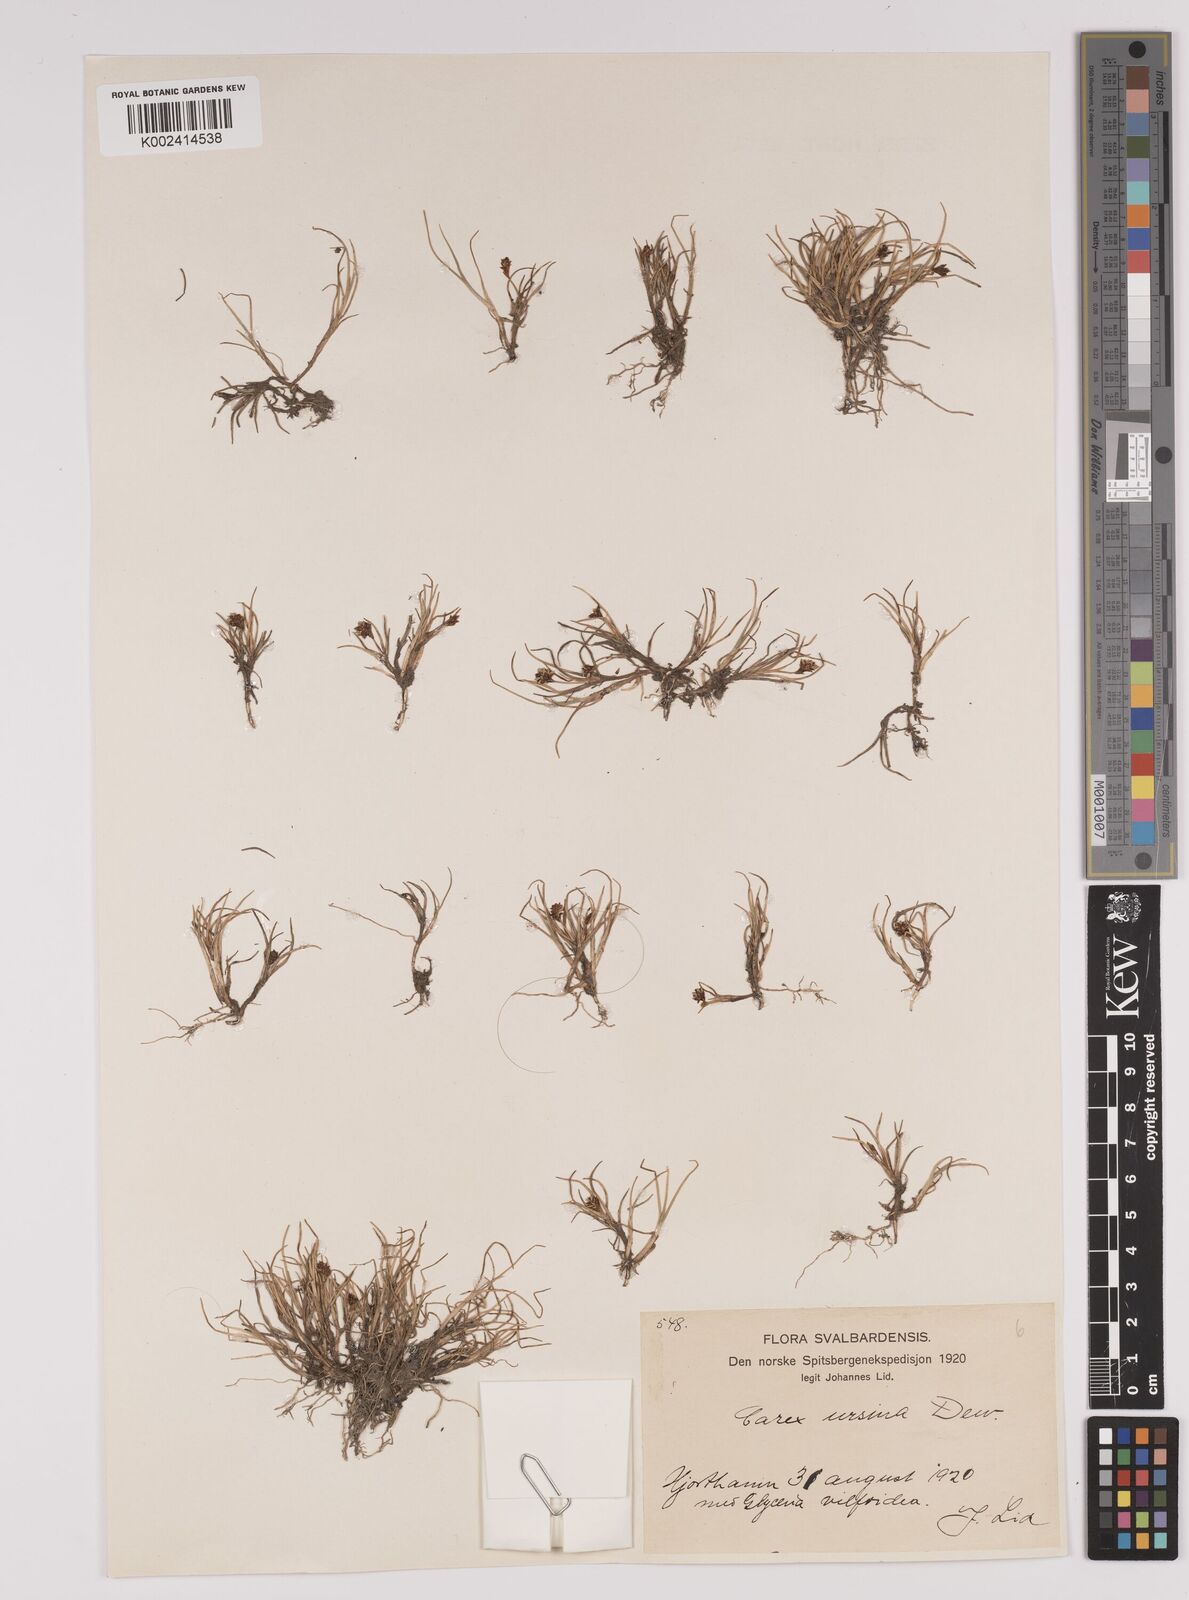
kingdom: Plantae
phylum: Tracheophyta
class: Liliopsida
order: Poales
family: Cyperaceae
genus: Carex
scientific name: Carex ursina
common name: Bear sedge
